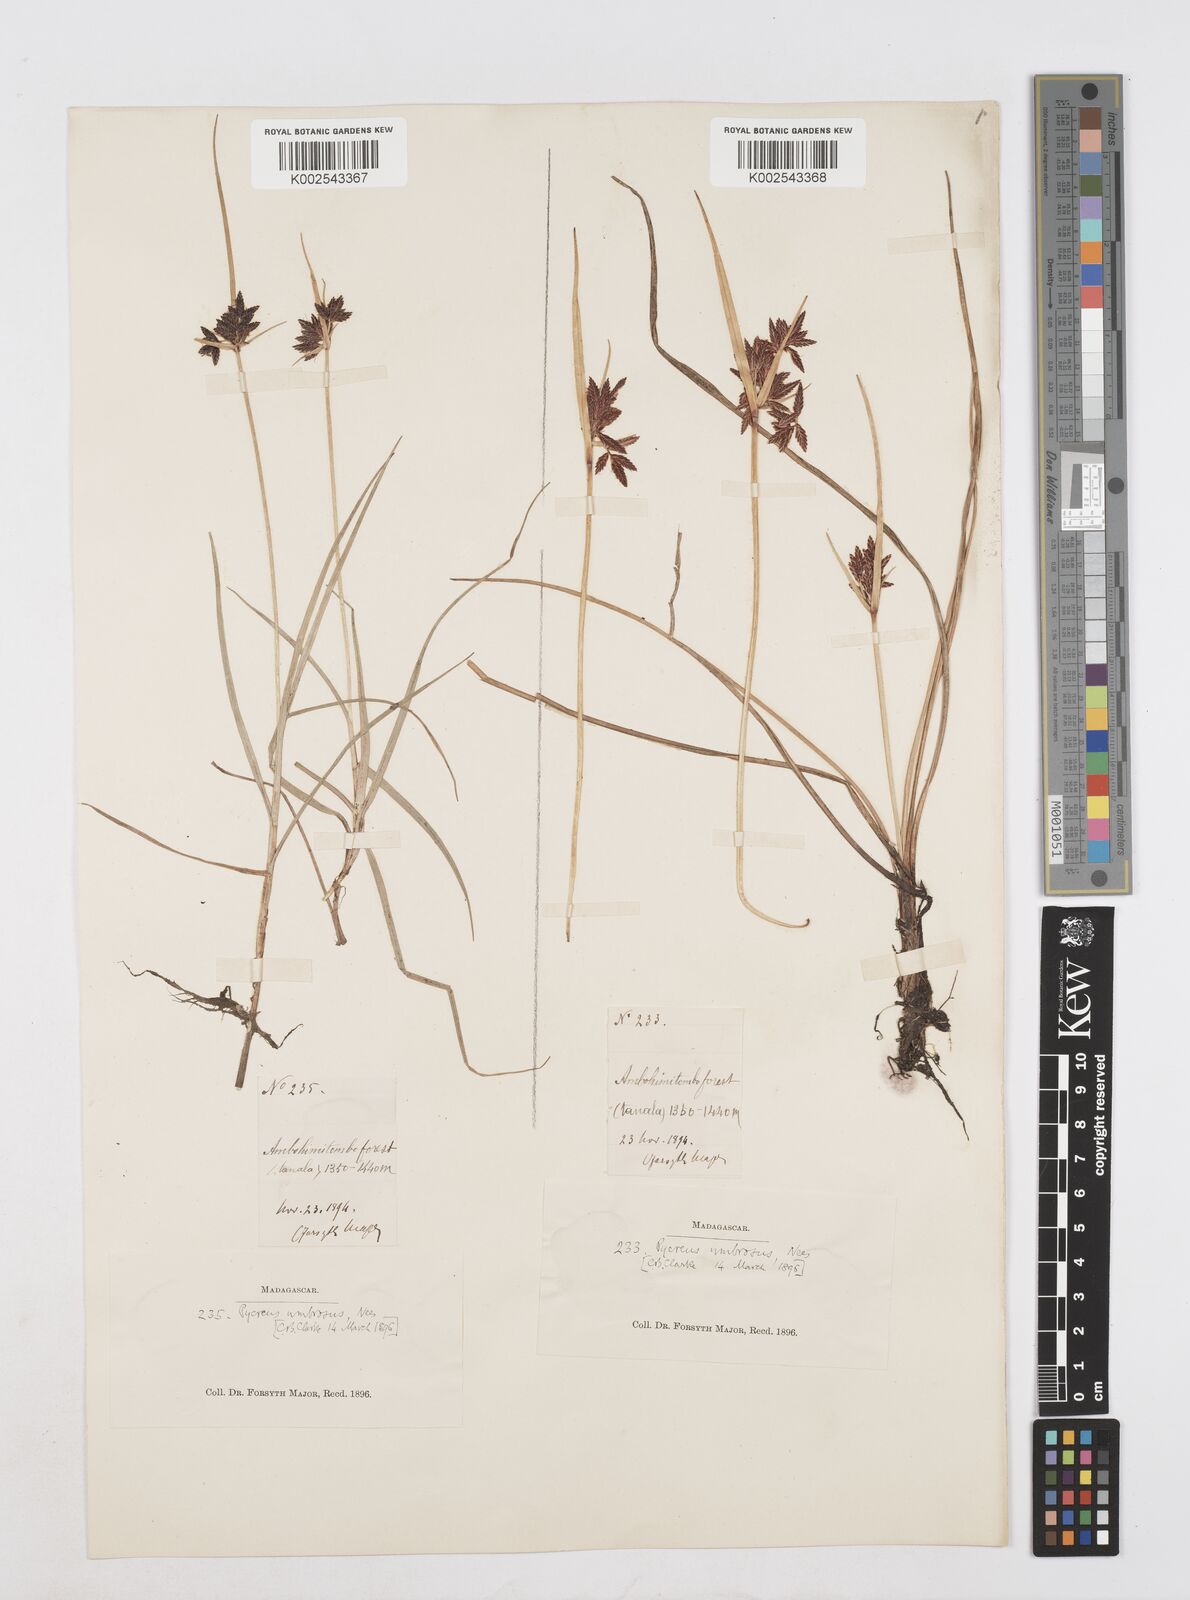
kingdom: Plantae
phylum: Tracheophyta
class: Liliopsida
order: Poales
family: Cyperaceae
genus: Cyperus
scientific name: Cyperus nitidus
